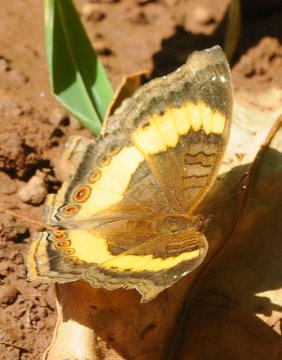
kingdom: Animalia
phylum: Arthropoda
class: Insecta
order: Lepidoptera
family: Nymphalidae
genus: Junonia
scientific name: Junonia terea
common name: Soldier Pansy
